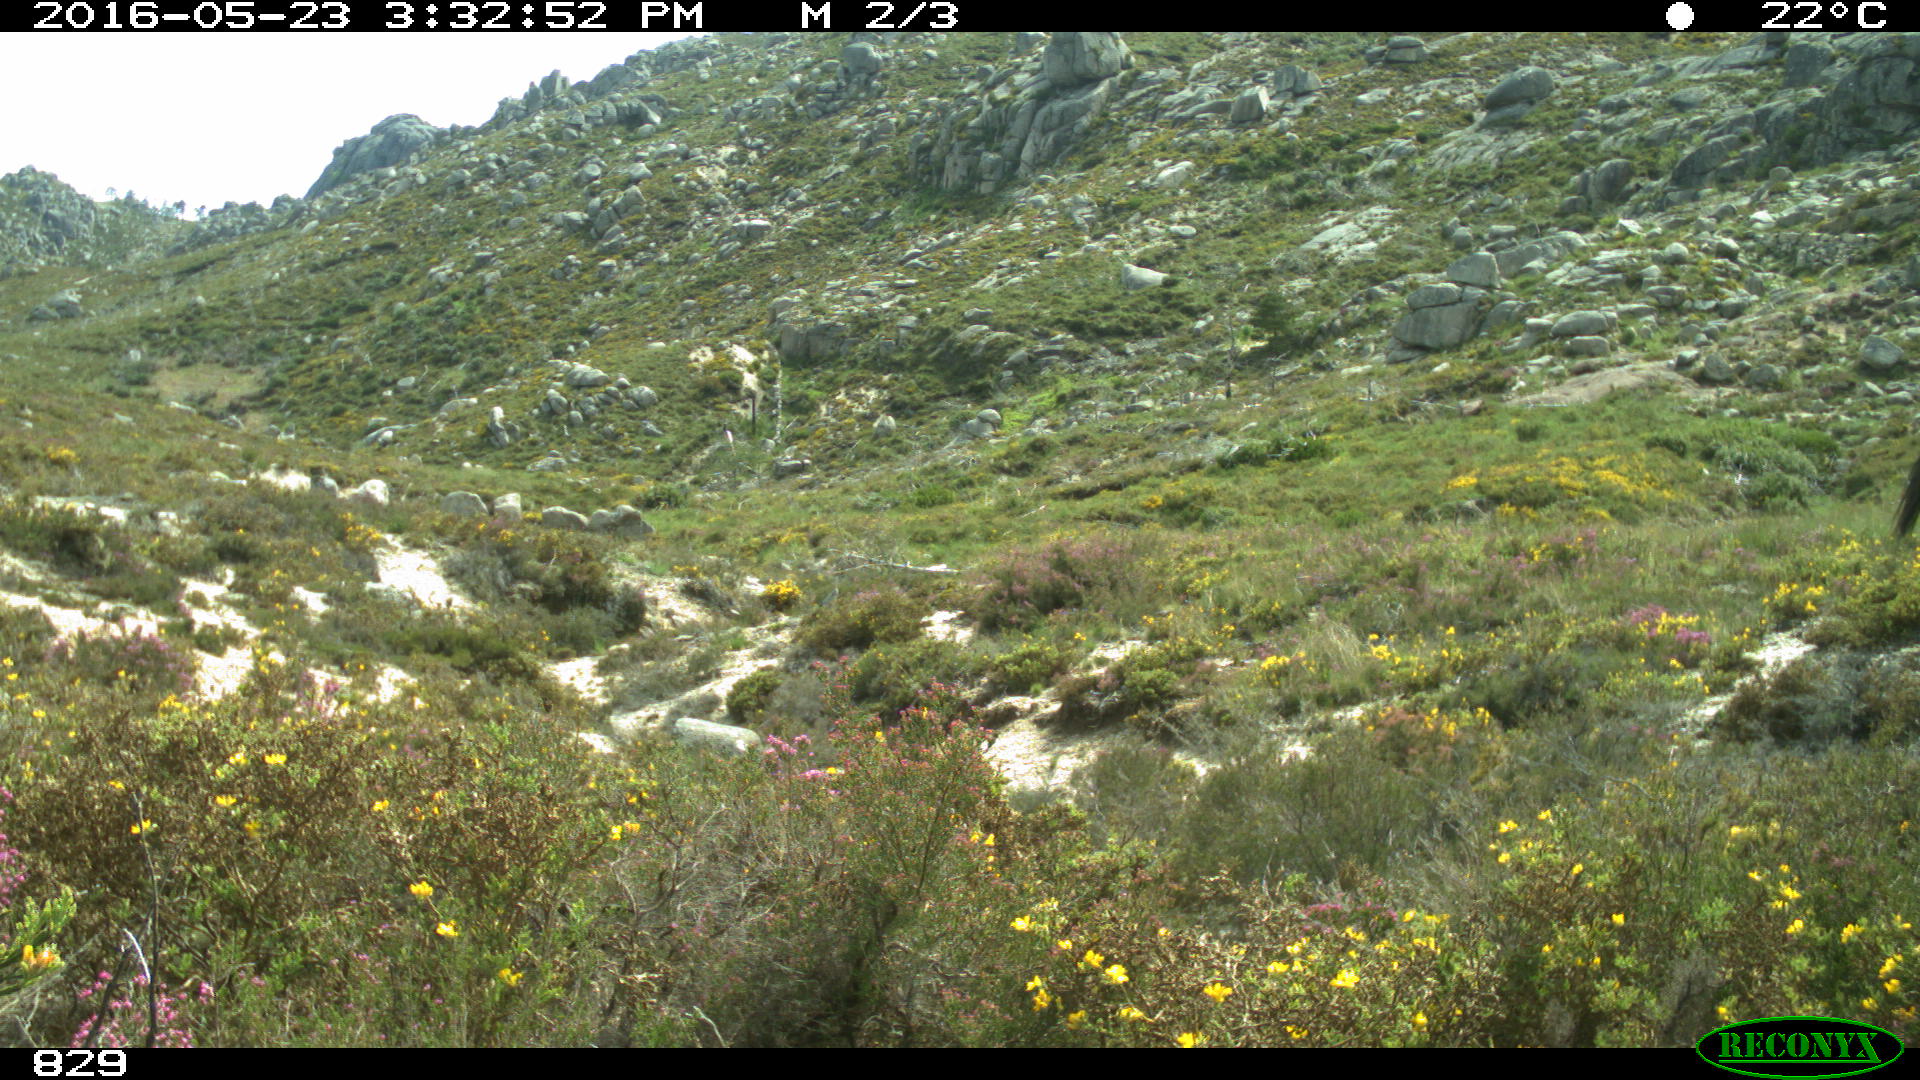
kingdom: Animalia
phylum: Chordata
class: Mammalia
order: Perissodactyla
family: Equidae
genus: Equus
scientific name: Equus caballus
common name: Horse
